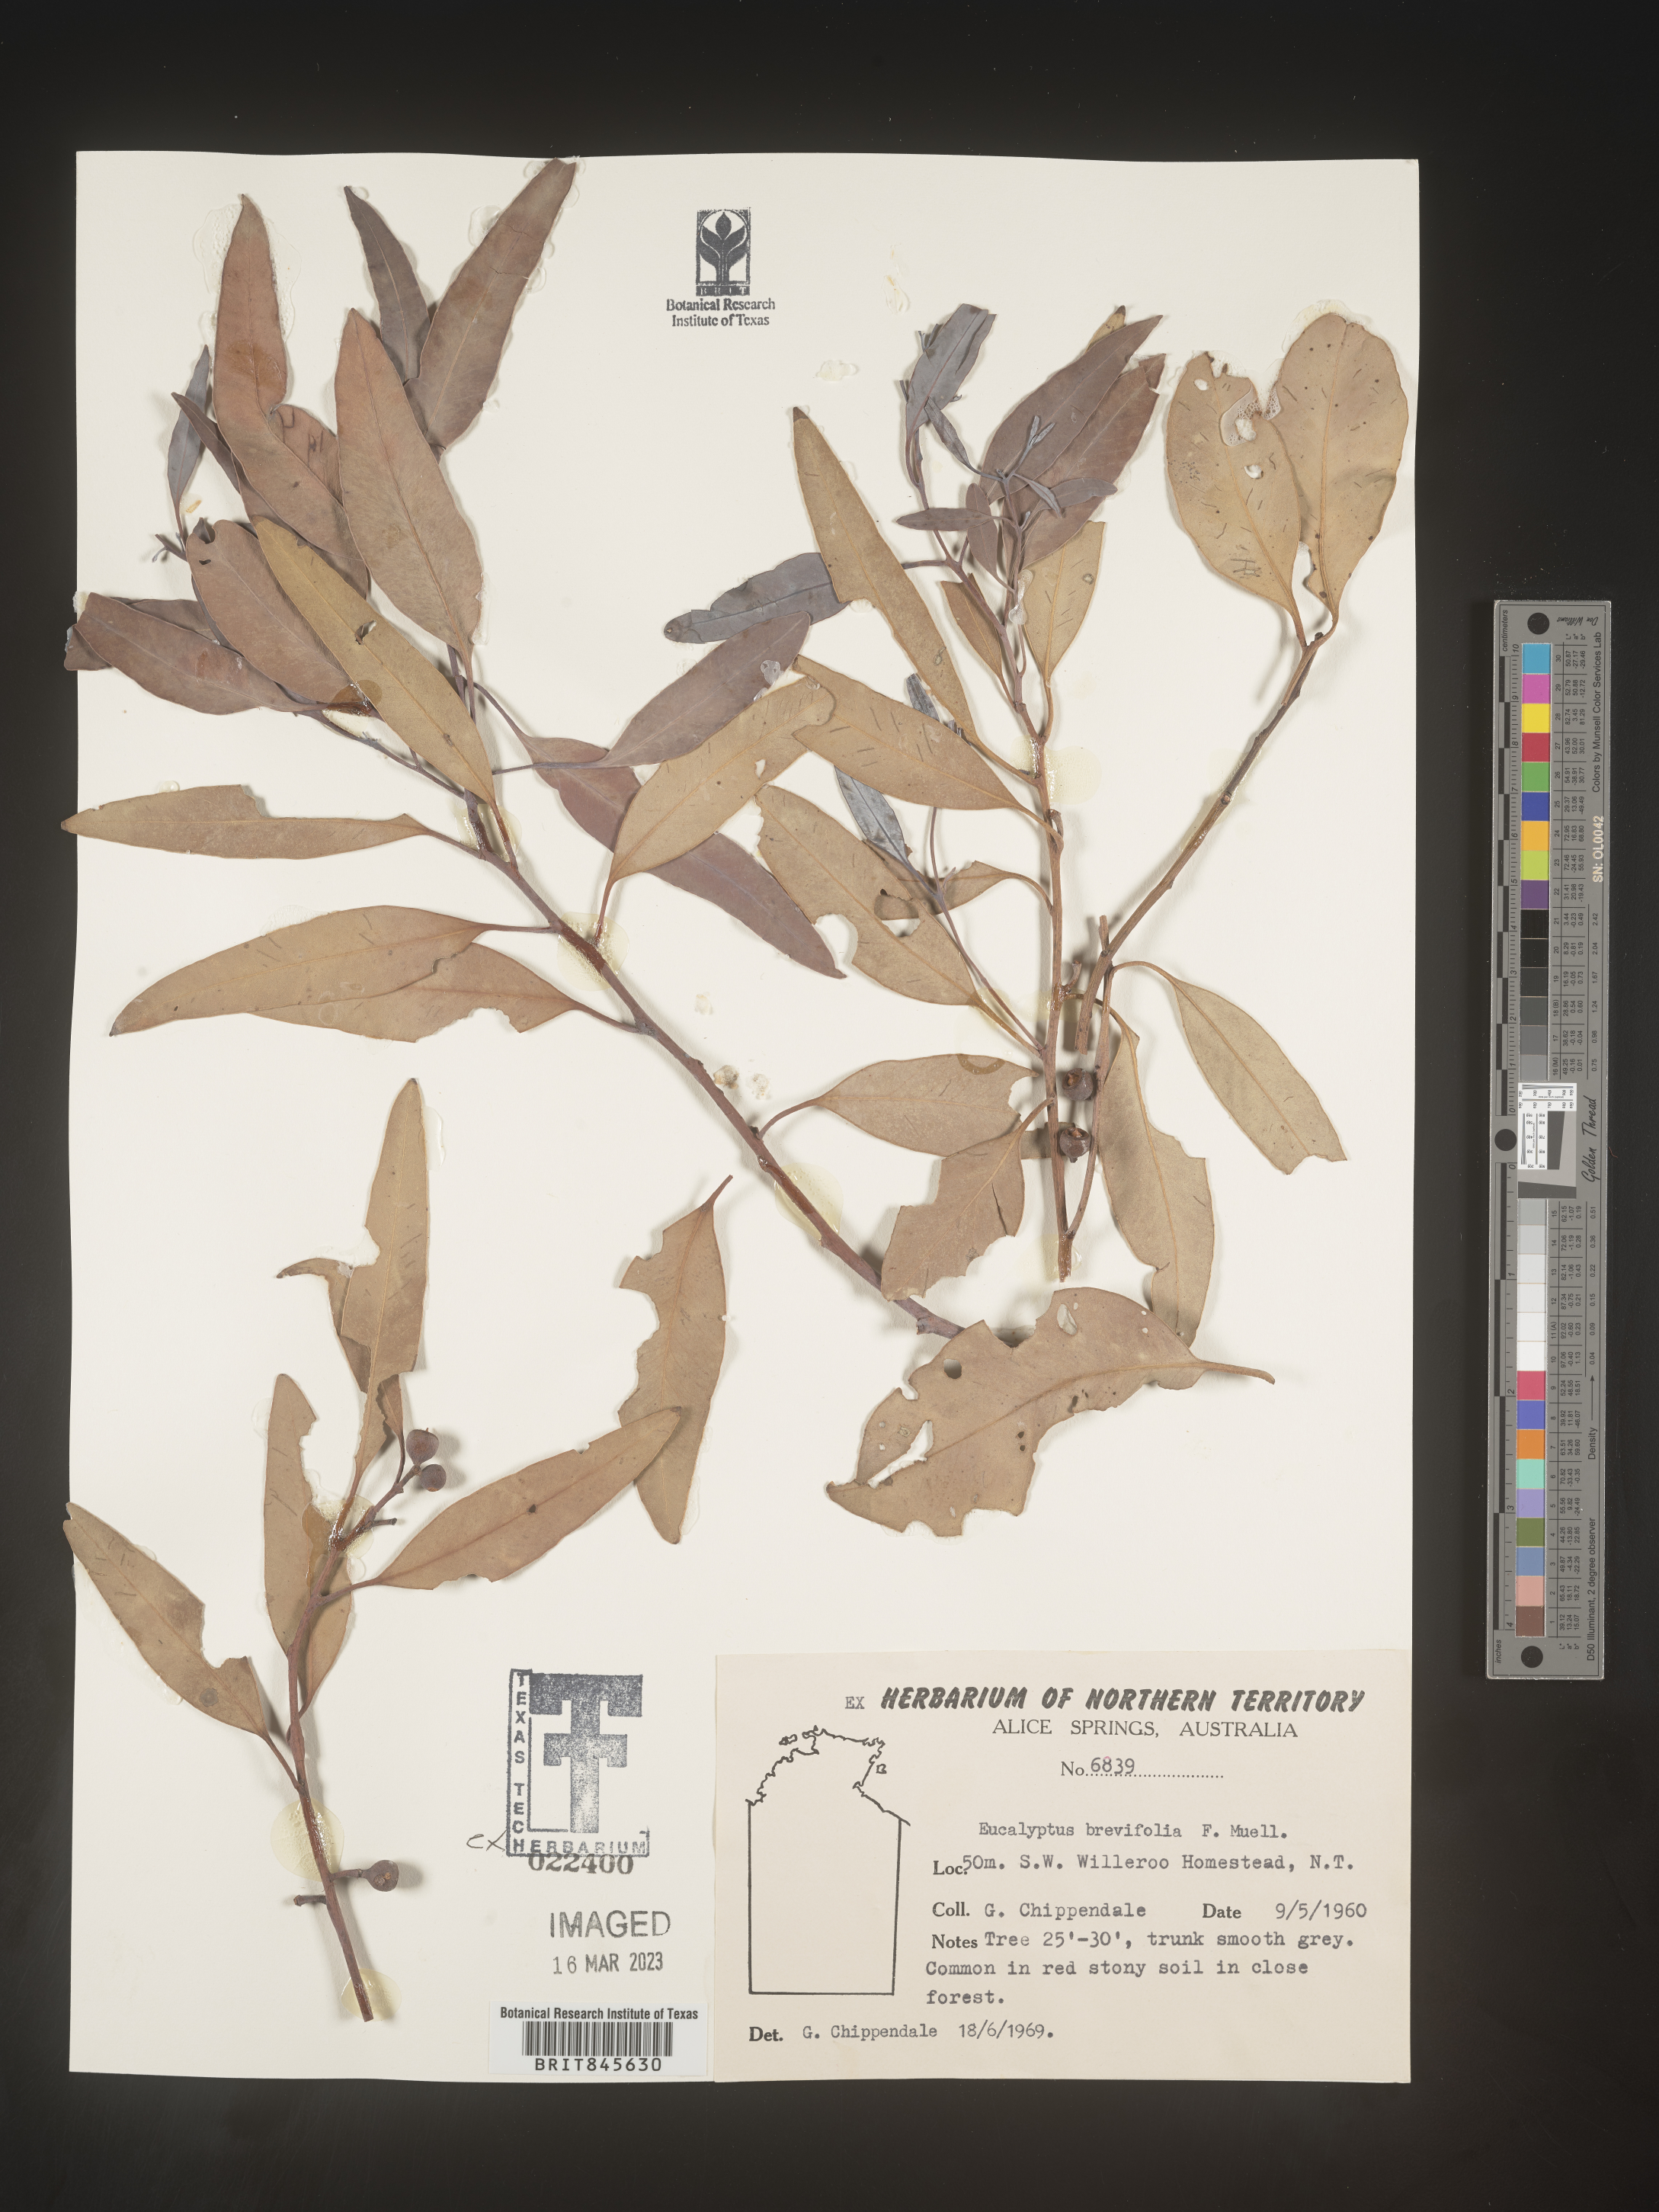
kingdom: Plantae
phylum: Tracheophyta
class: Magnoliopsida
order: Myrtales
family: Myrtaceae
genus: Eucalyptus
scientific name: Eucalyptus
